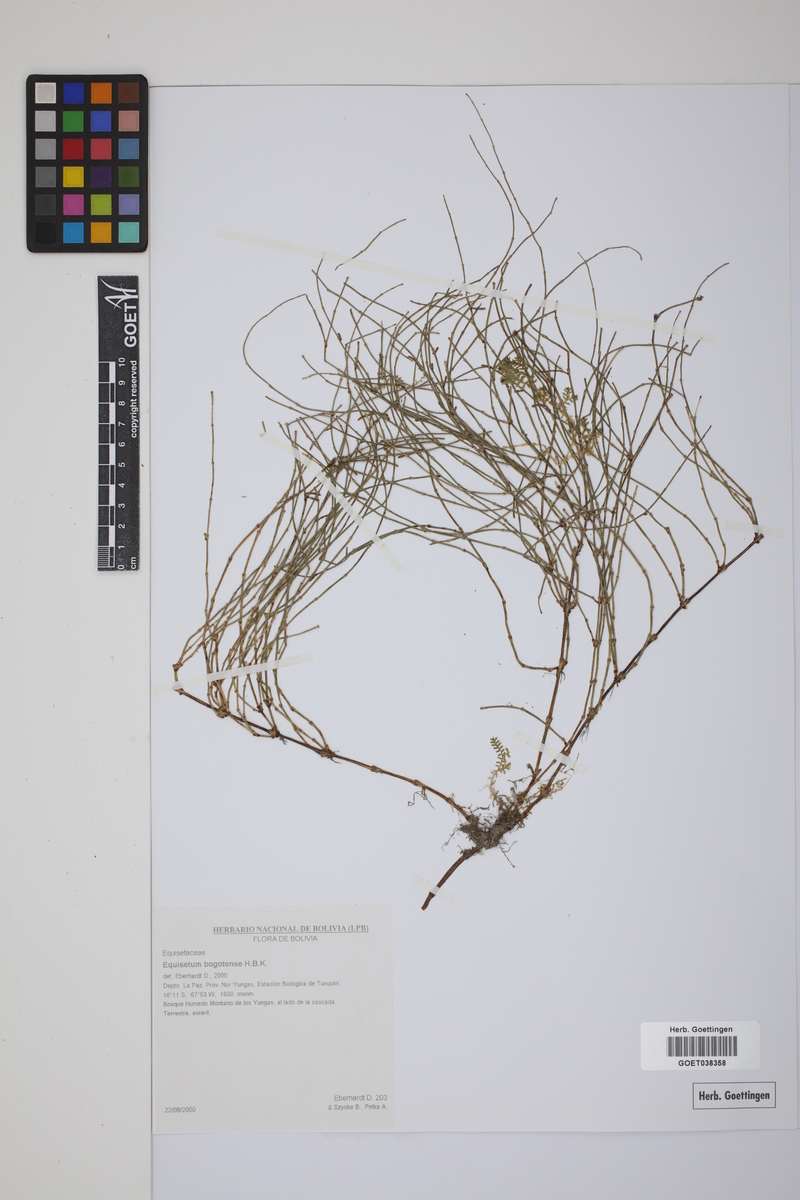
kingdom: Plantae
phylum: Tracheophyta
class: Polypodiopsida
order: Equisetales
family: Equisetaceae
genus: Equisetum
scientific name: Equisetum bogotense
